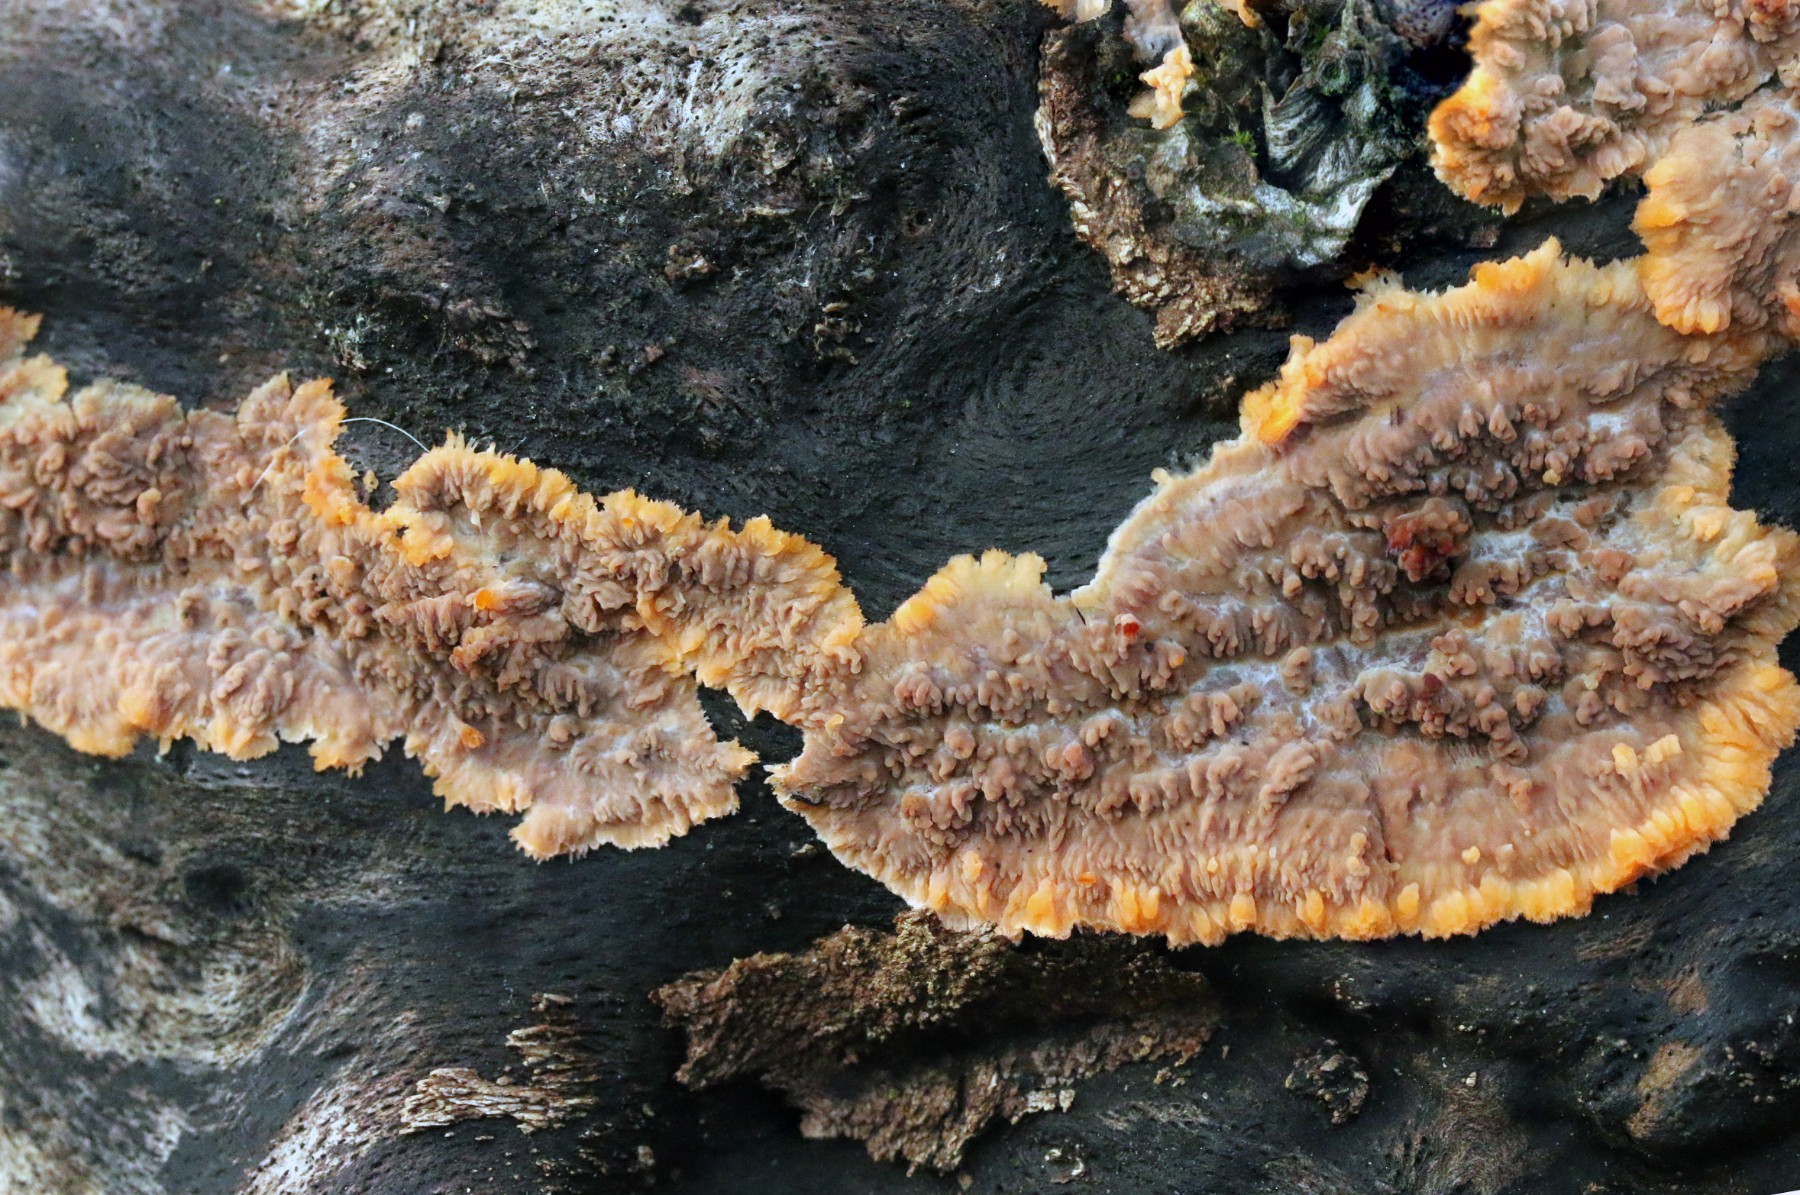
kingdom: Fungi
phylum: Basidiomycota
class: Agaricomycetes
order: Polyporales
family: Meruliaceae
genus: Phlebia
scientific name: Phlebia radiata
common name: stråle-åresvamp
